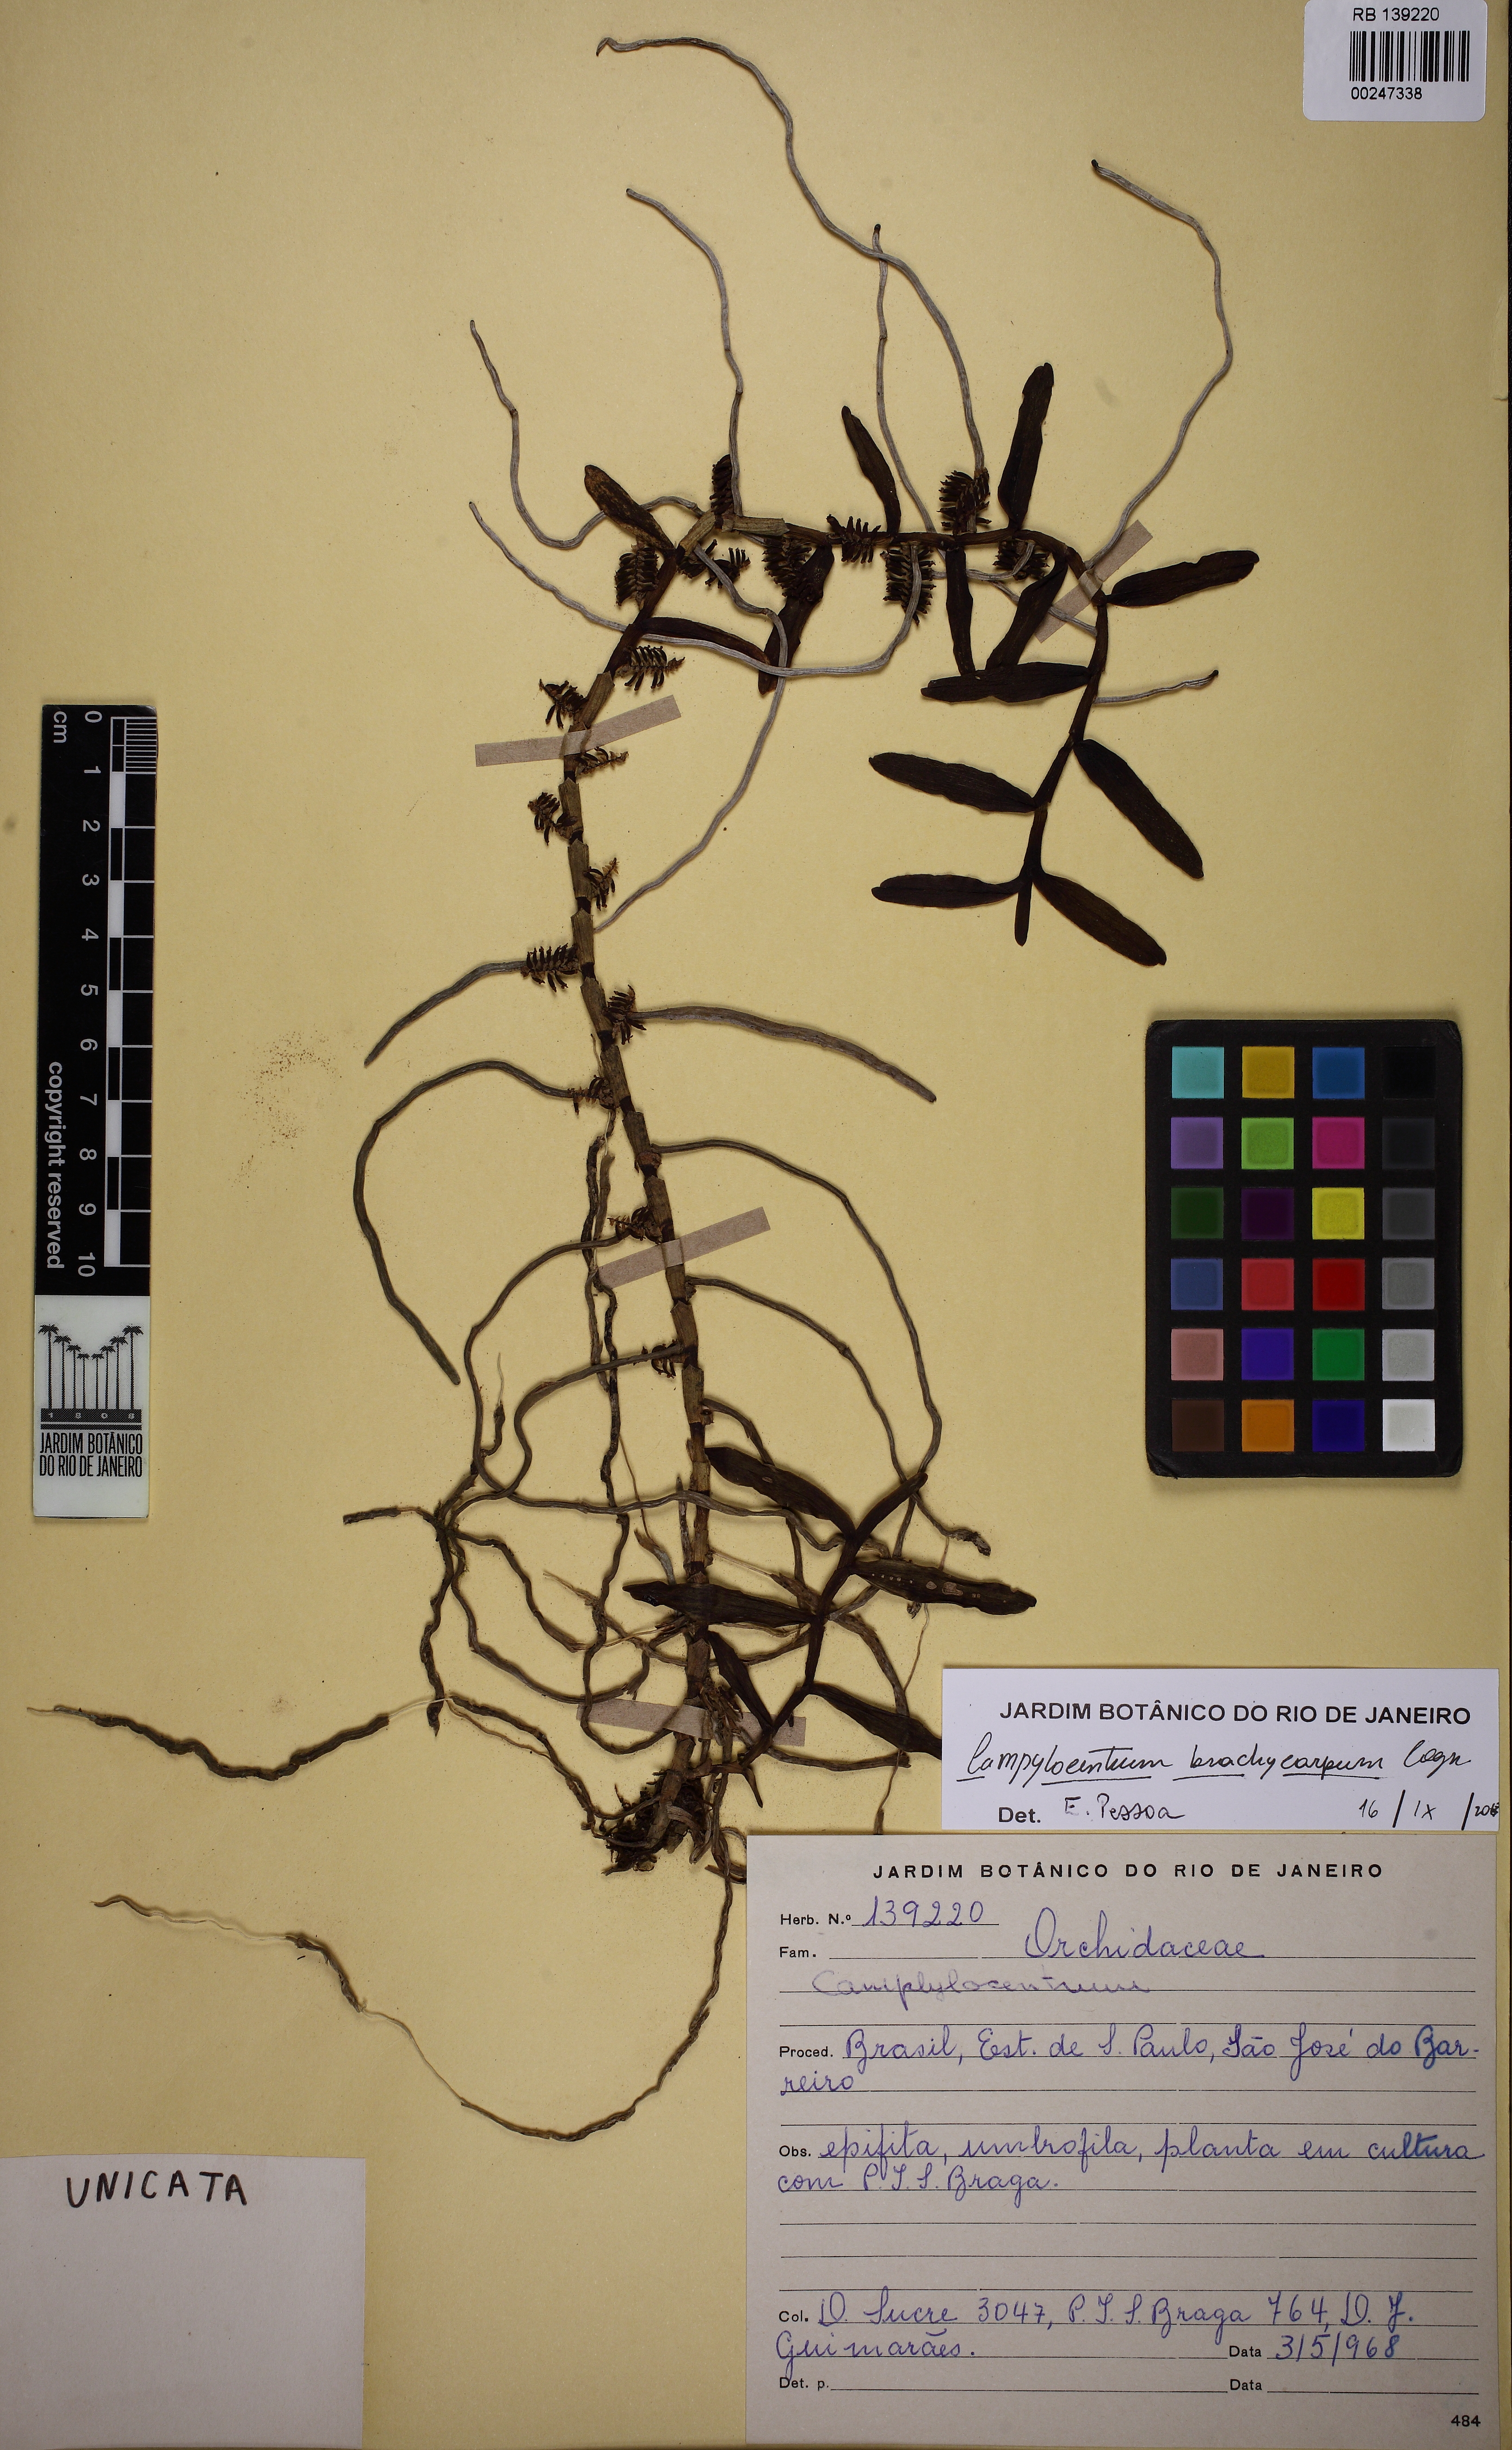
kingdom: Plantae
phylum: Tracheophyta
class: Liliopsida
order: Asparagales
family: Orchidaceae
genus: Campylocentrum
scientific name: Campylocentrum brachycarpum
